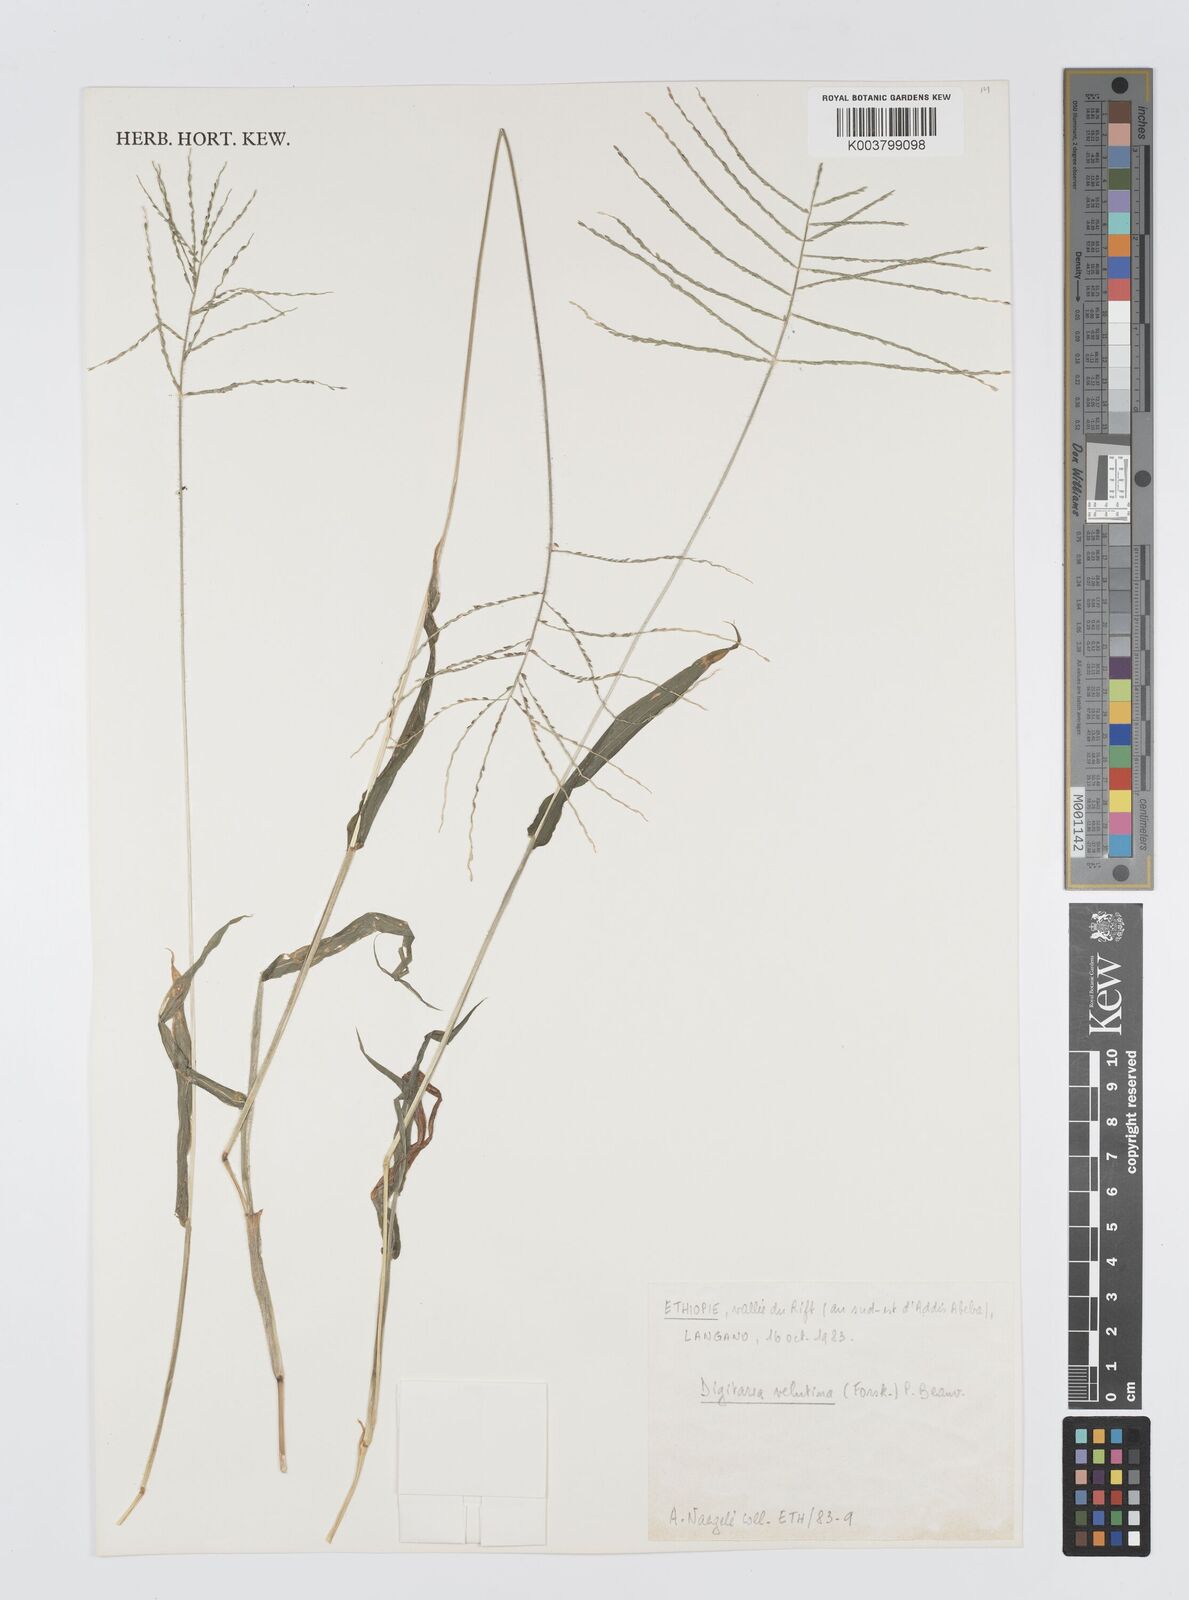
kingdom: Plantae
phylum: Tracheophyta
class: Liliopsida
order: Poales
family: Poaceae
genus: Digitaria
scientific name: Digitaria velutina
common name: Long-plume finger grass
